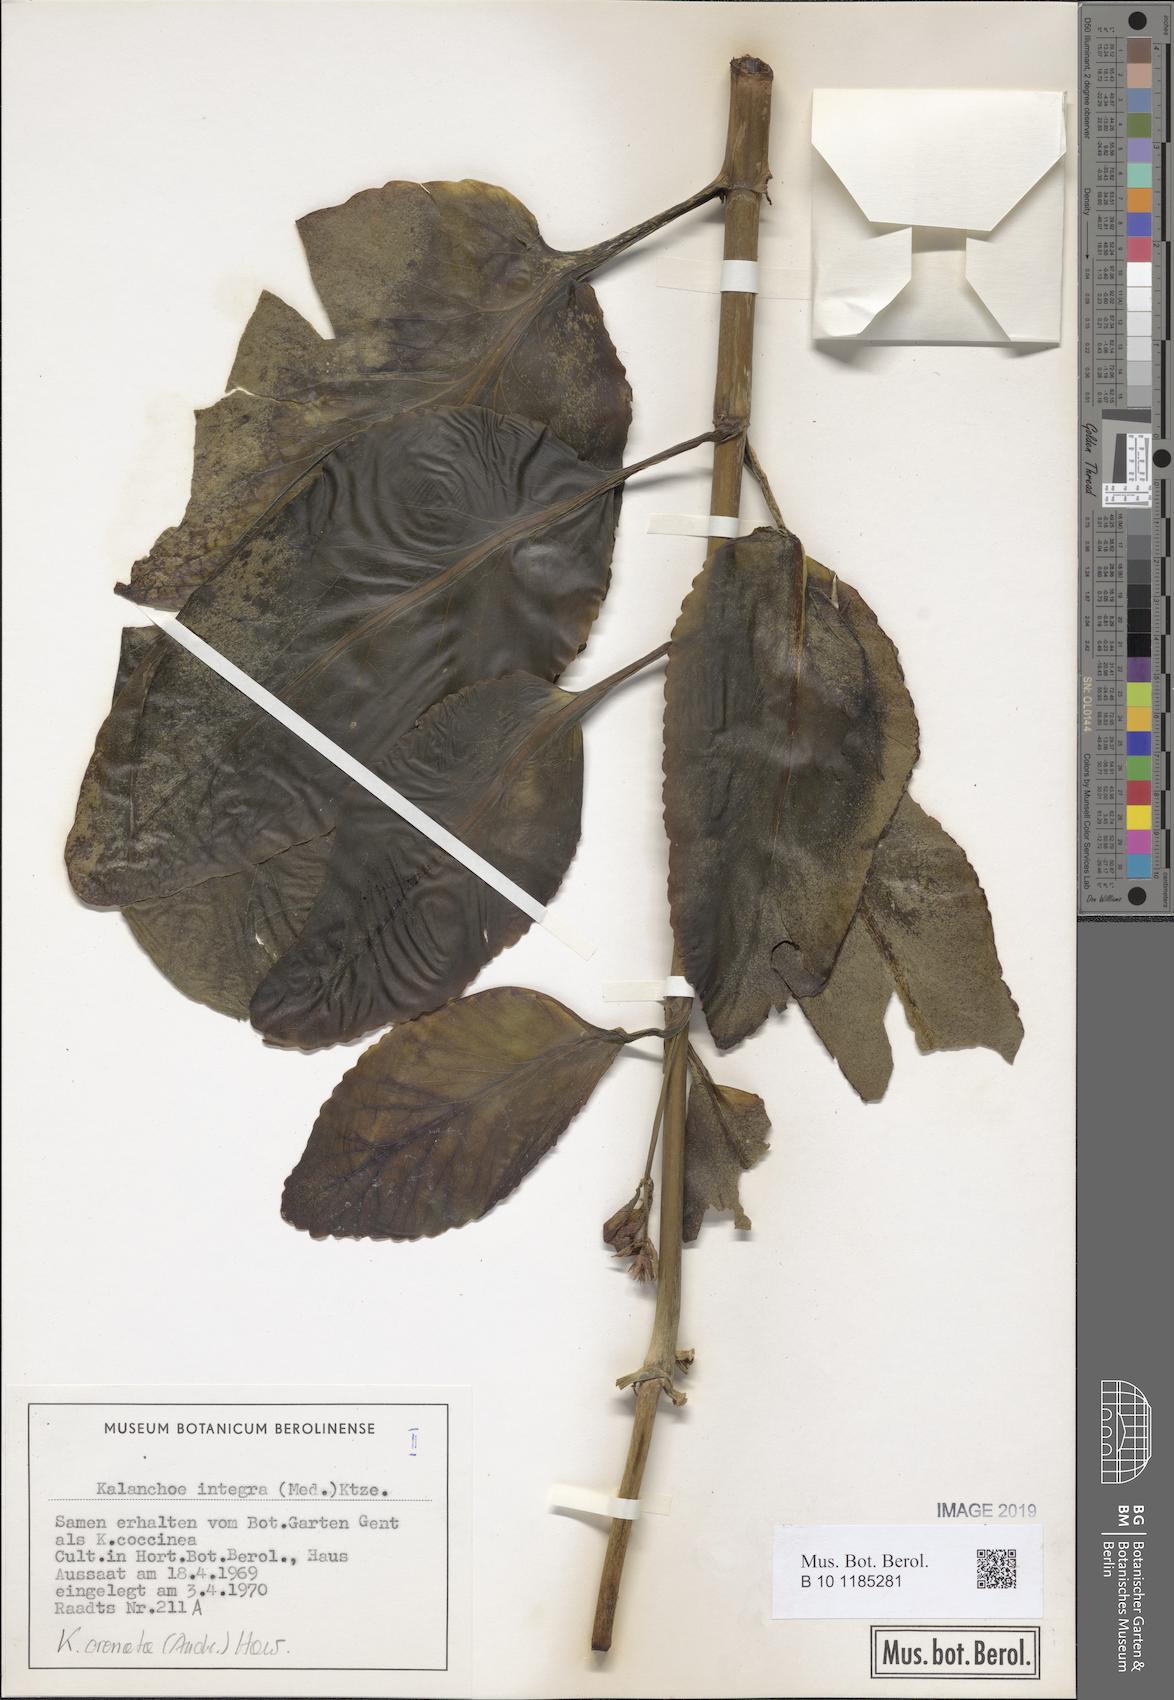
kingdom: Plantae
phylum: Tracheophyta
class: Magnoliopsida
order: Saxifragales
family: Crassulaceae
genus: Kalanchoe
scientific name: Kalanchoe crenata
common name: Neverdie
